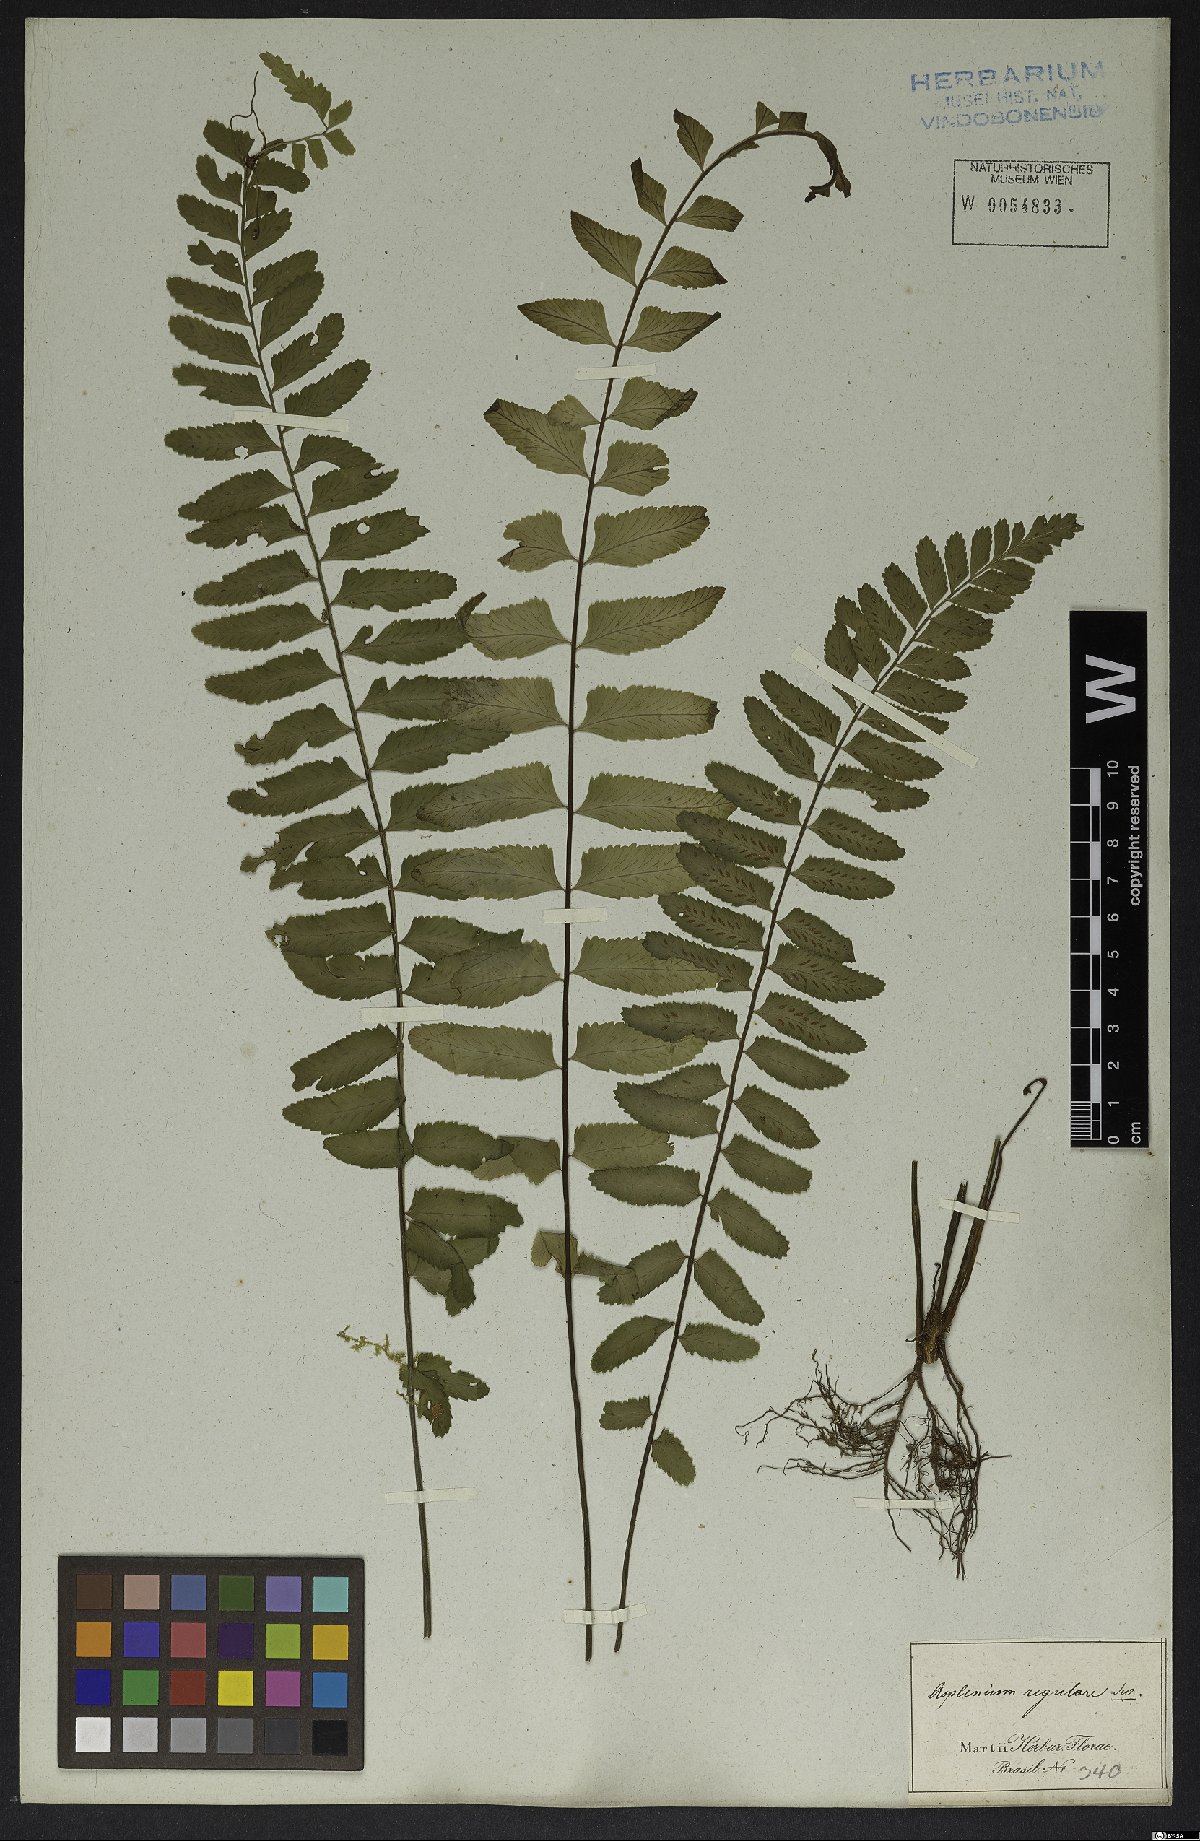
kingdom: Plantae
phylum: Tracheophyta
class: Polypodiopsida
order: Polypodiales
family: Aspleniaceae
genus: Asplenium
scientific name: Asplenium regulare
